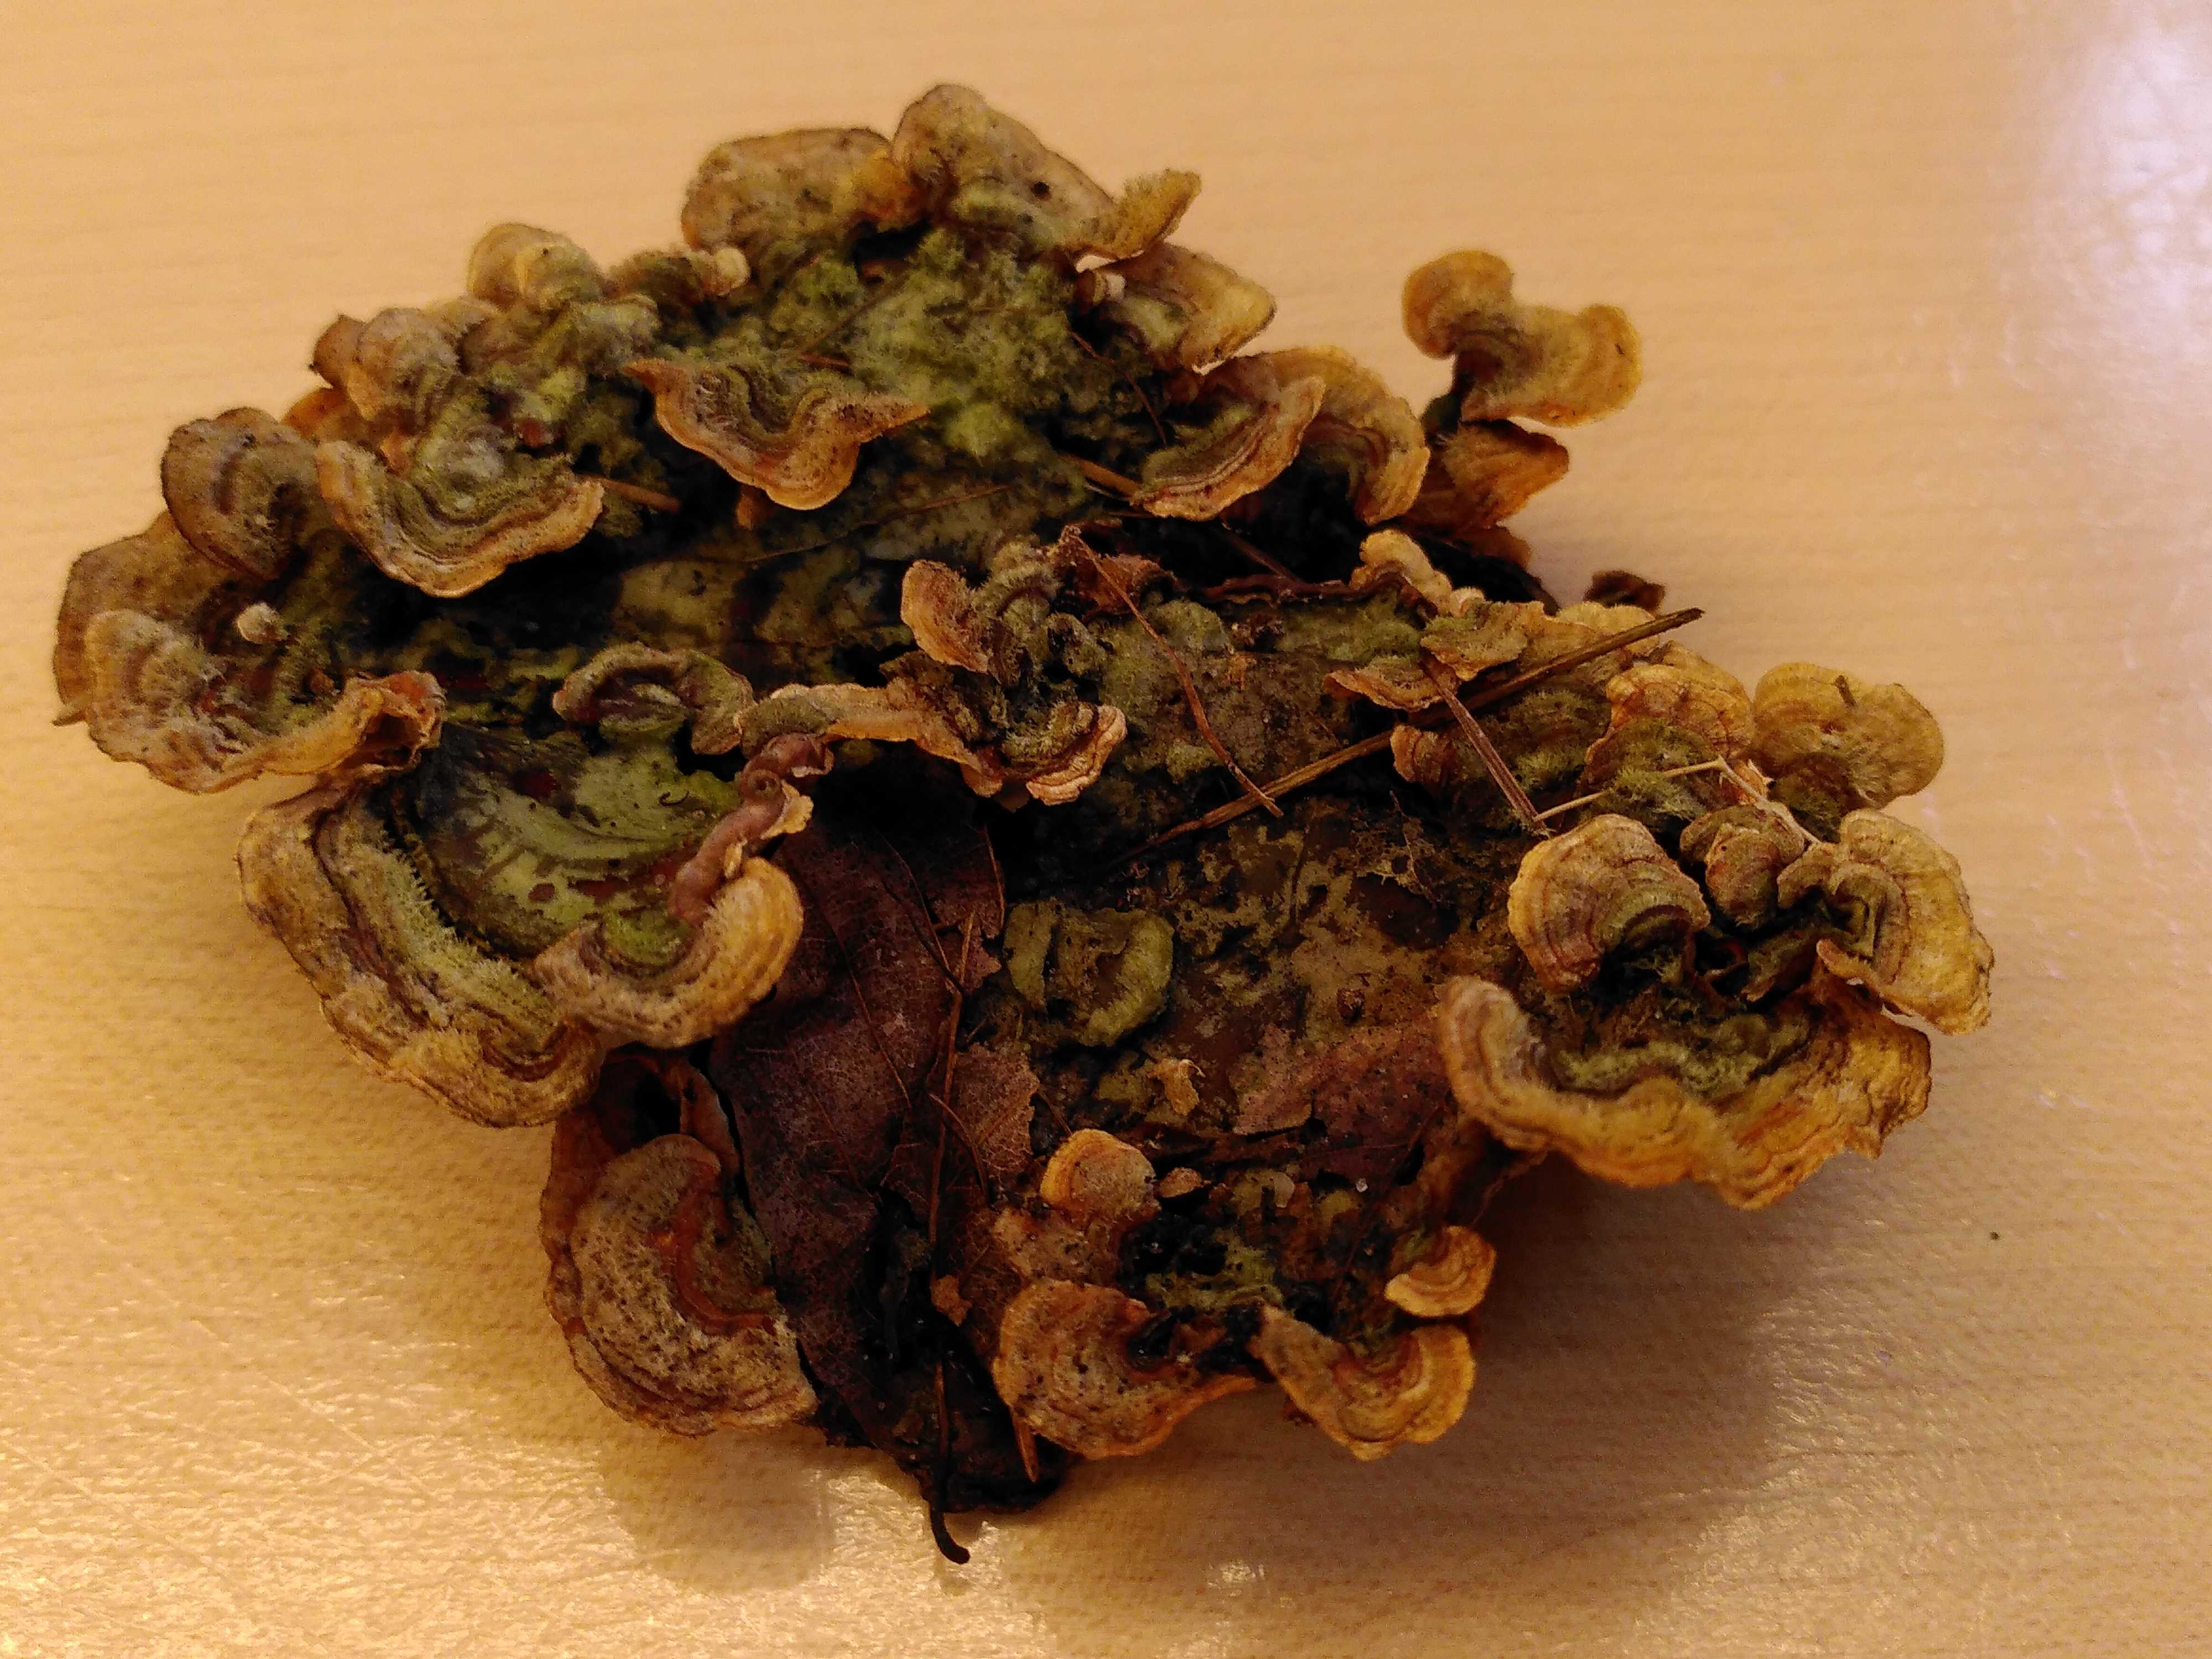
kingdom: Fungi
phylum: Basidiomycota
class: Agaricomycetes
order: Russulales
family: Stereaceae
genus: Stereum
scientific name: Stereum hirsutum
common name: håret lædersvamp
